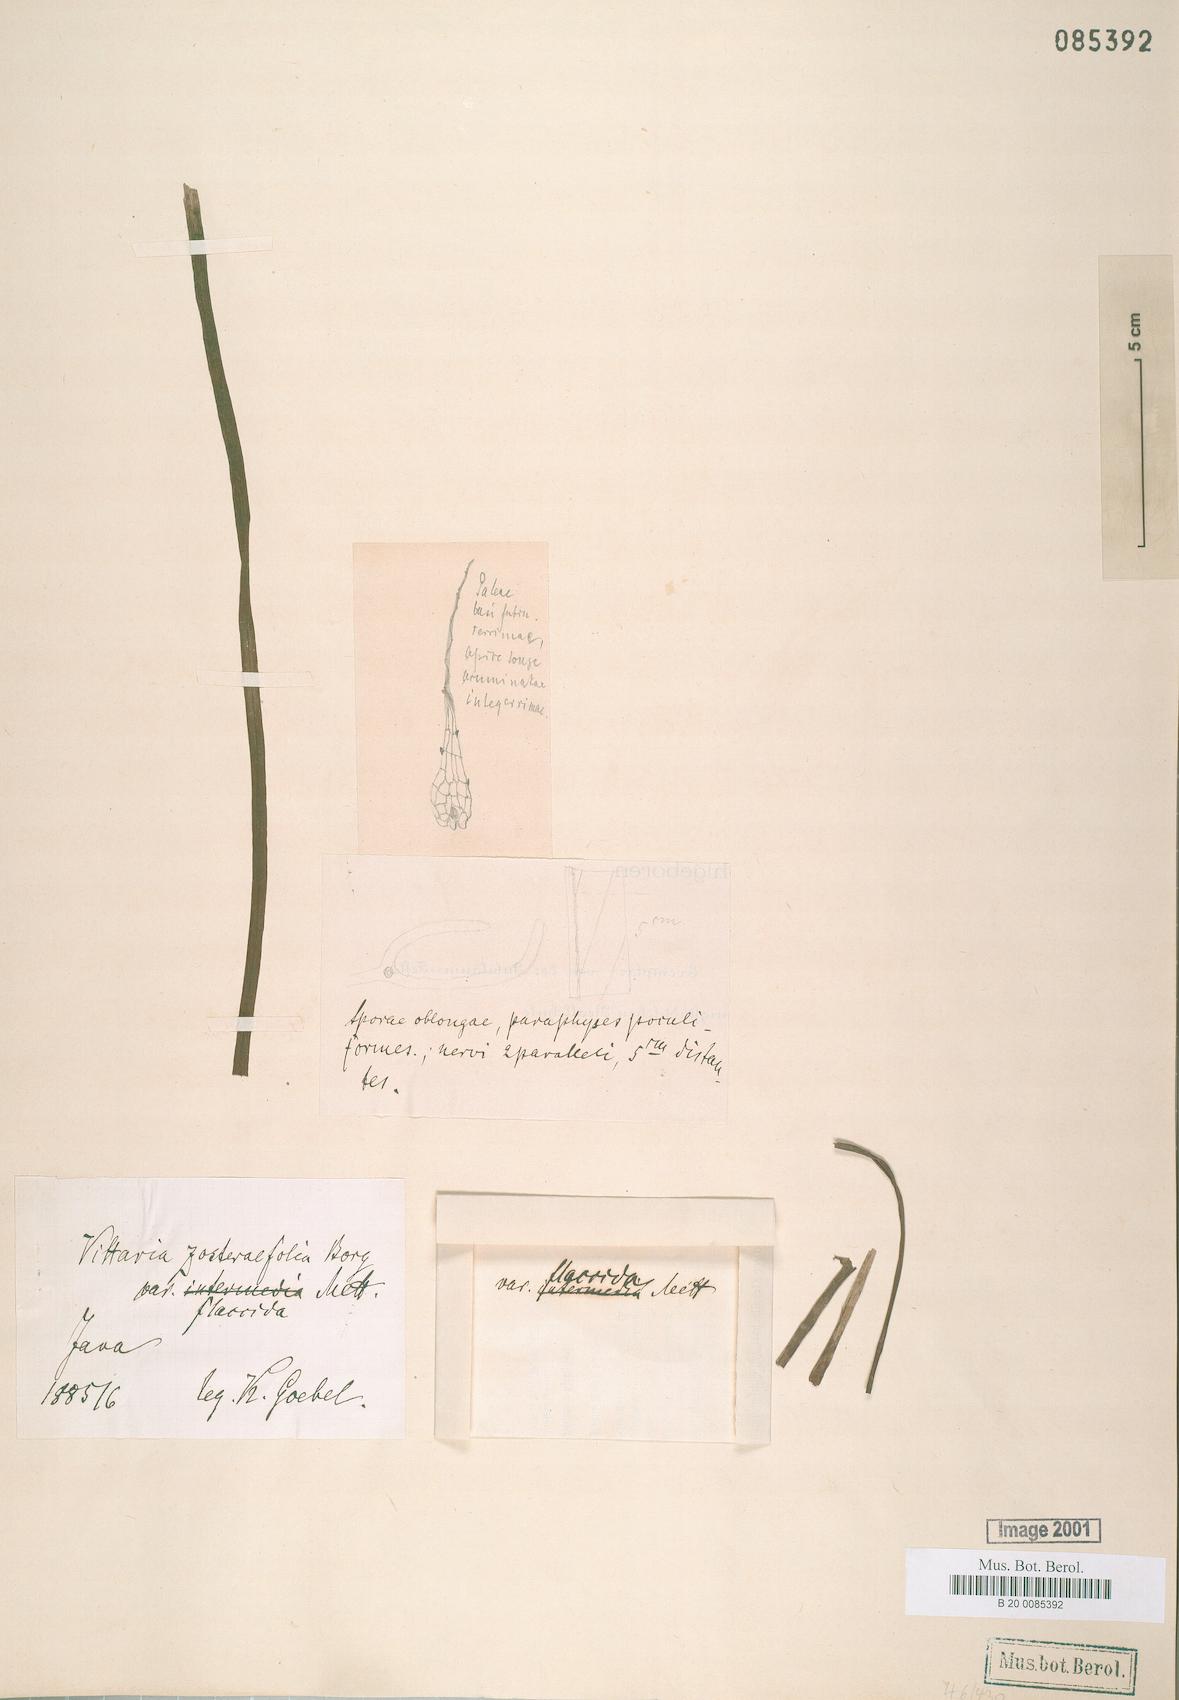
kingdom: Plantae
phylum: Tracheophyta
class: Polypodiopsida
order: Polypodiales
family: Pteridaceae
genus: Haplopteris
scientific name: Haplopteris elongata
